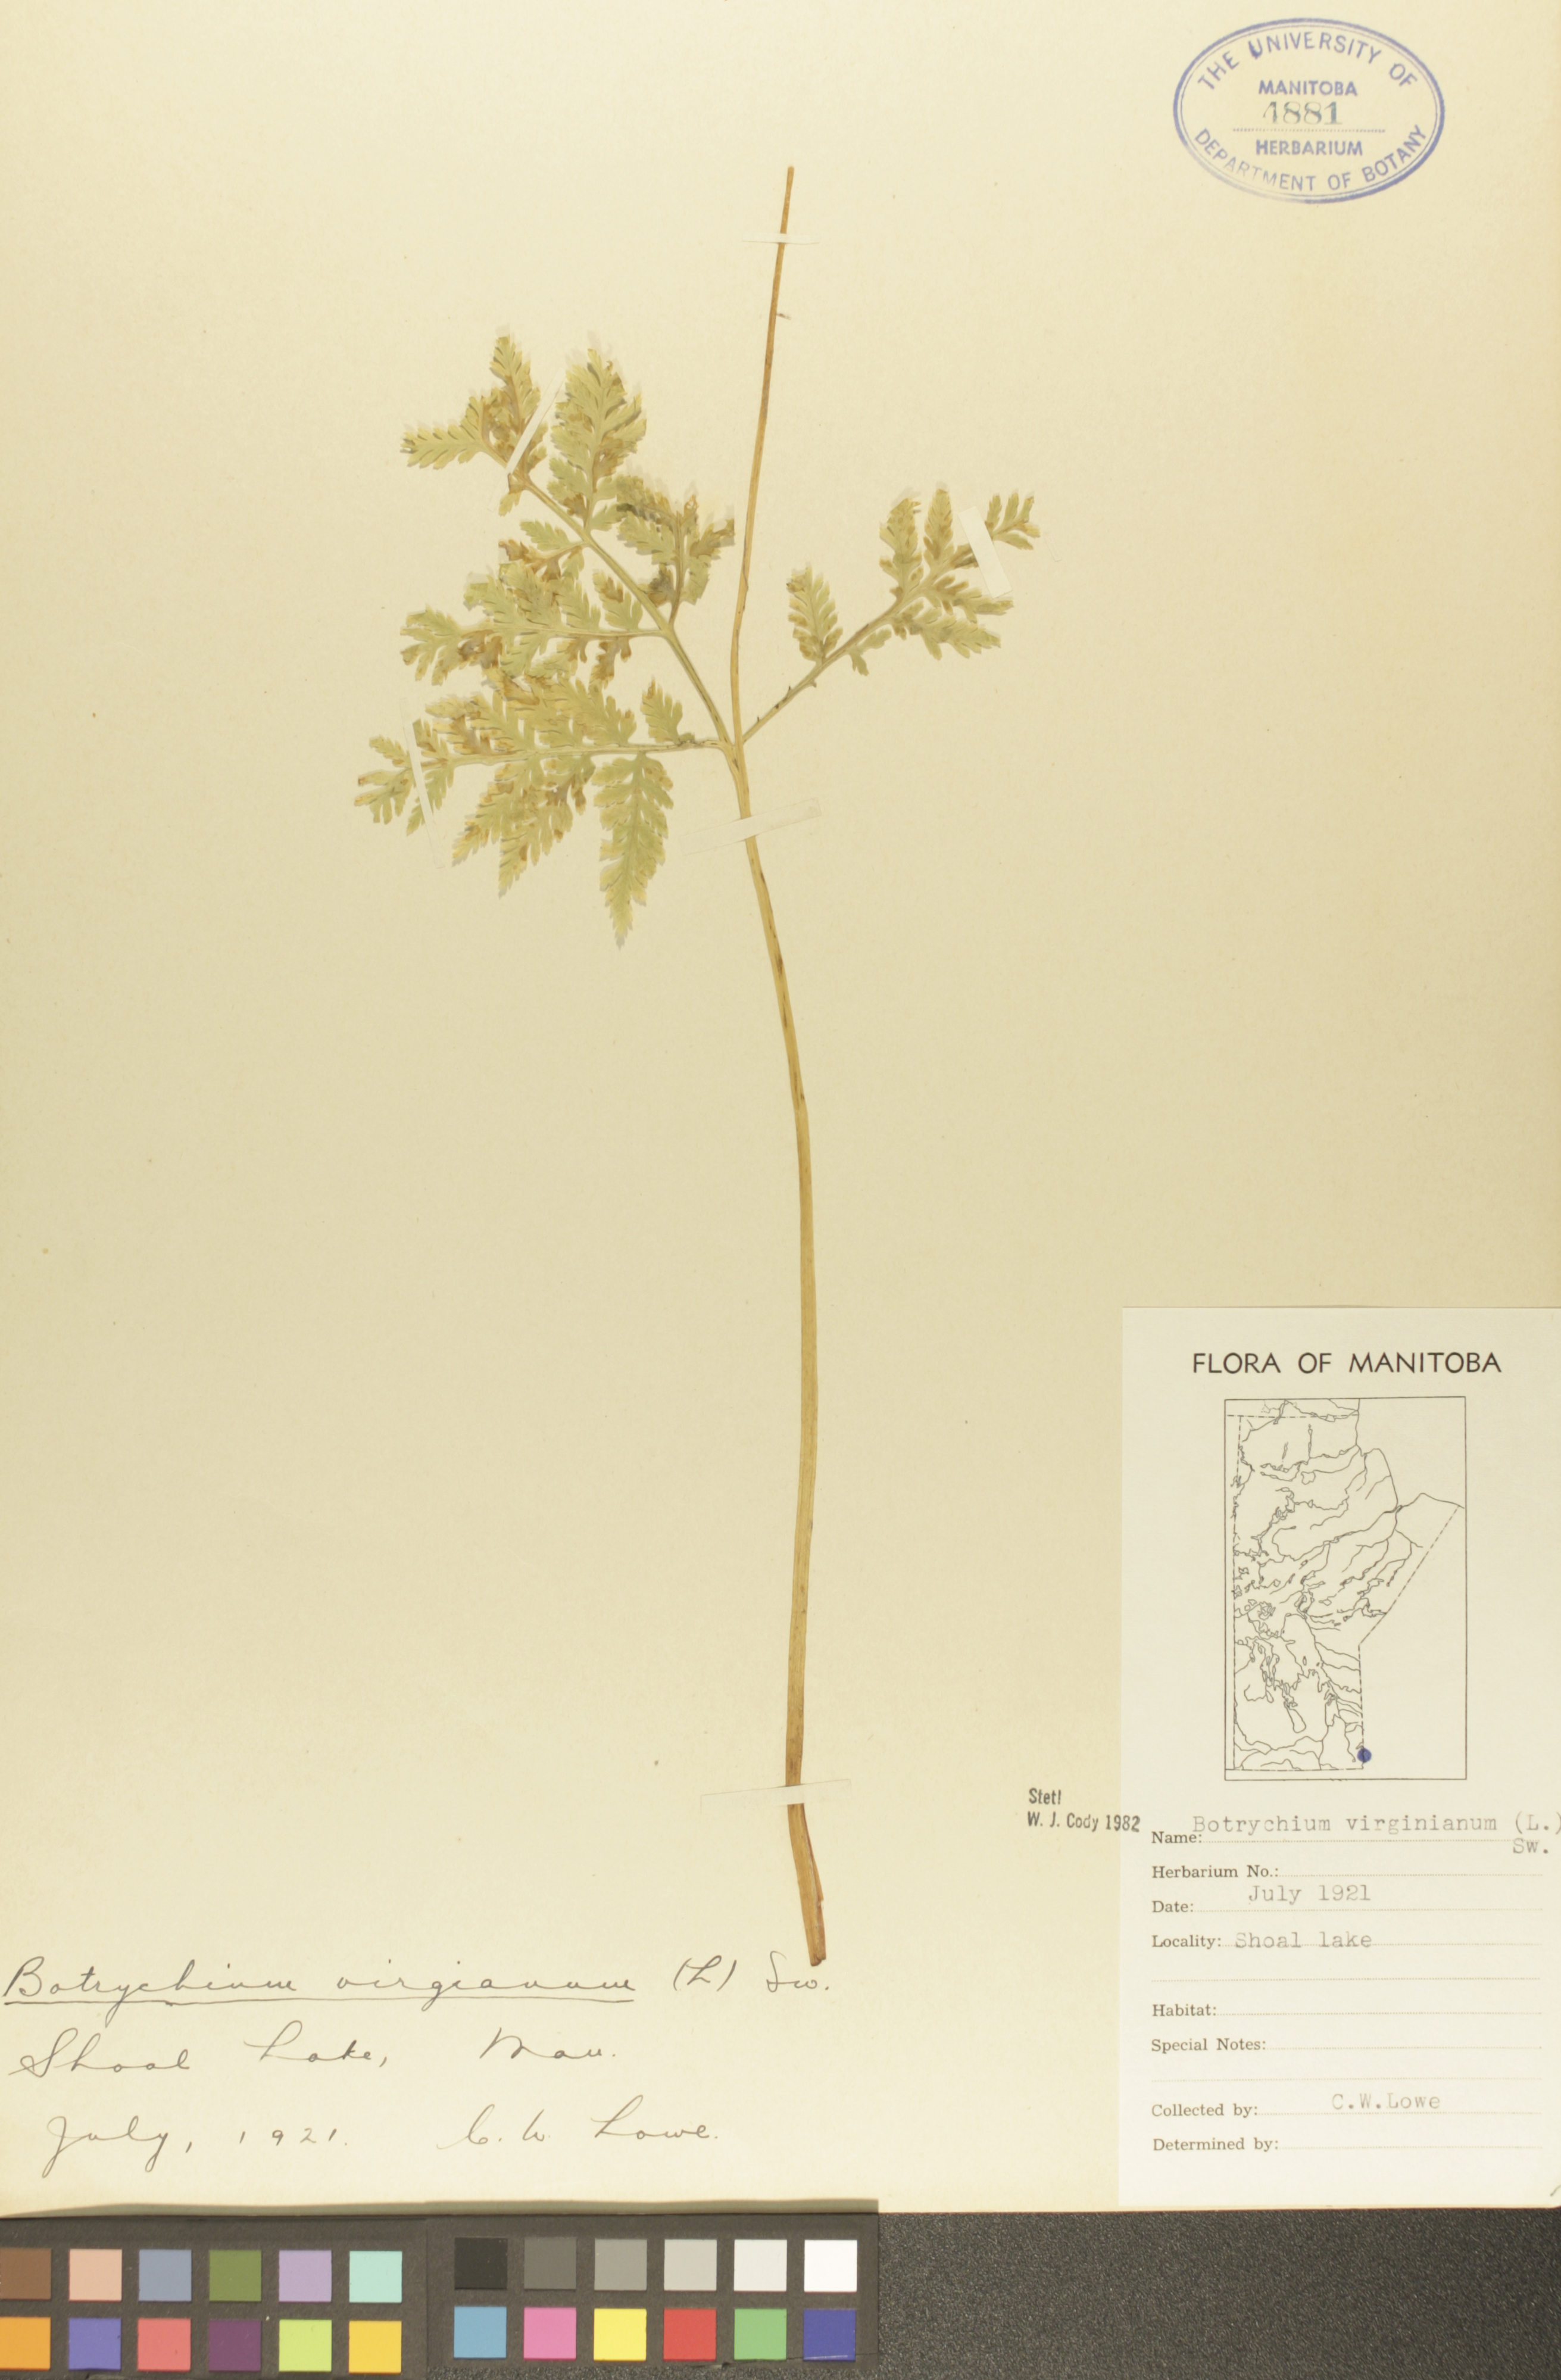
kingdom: Plantae
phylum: Tracheophyta
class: Polypodiopsida
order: Ophioglossales
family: Ophioglossaceae
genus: Botrypus
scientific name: Botrypus virginianus
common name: Common grapefern
